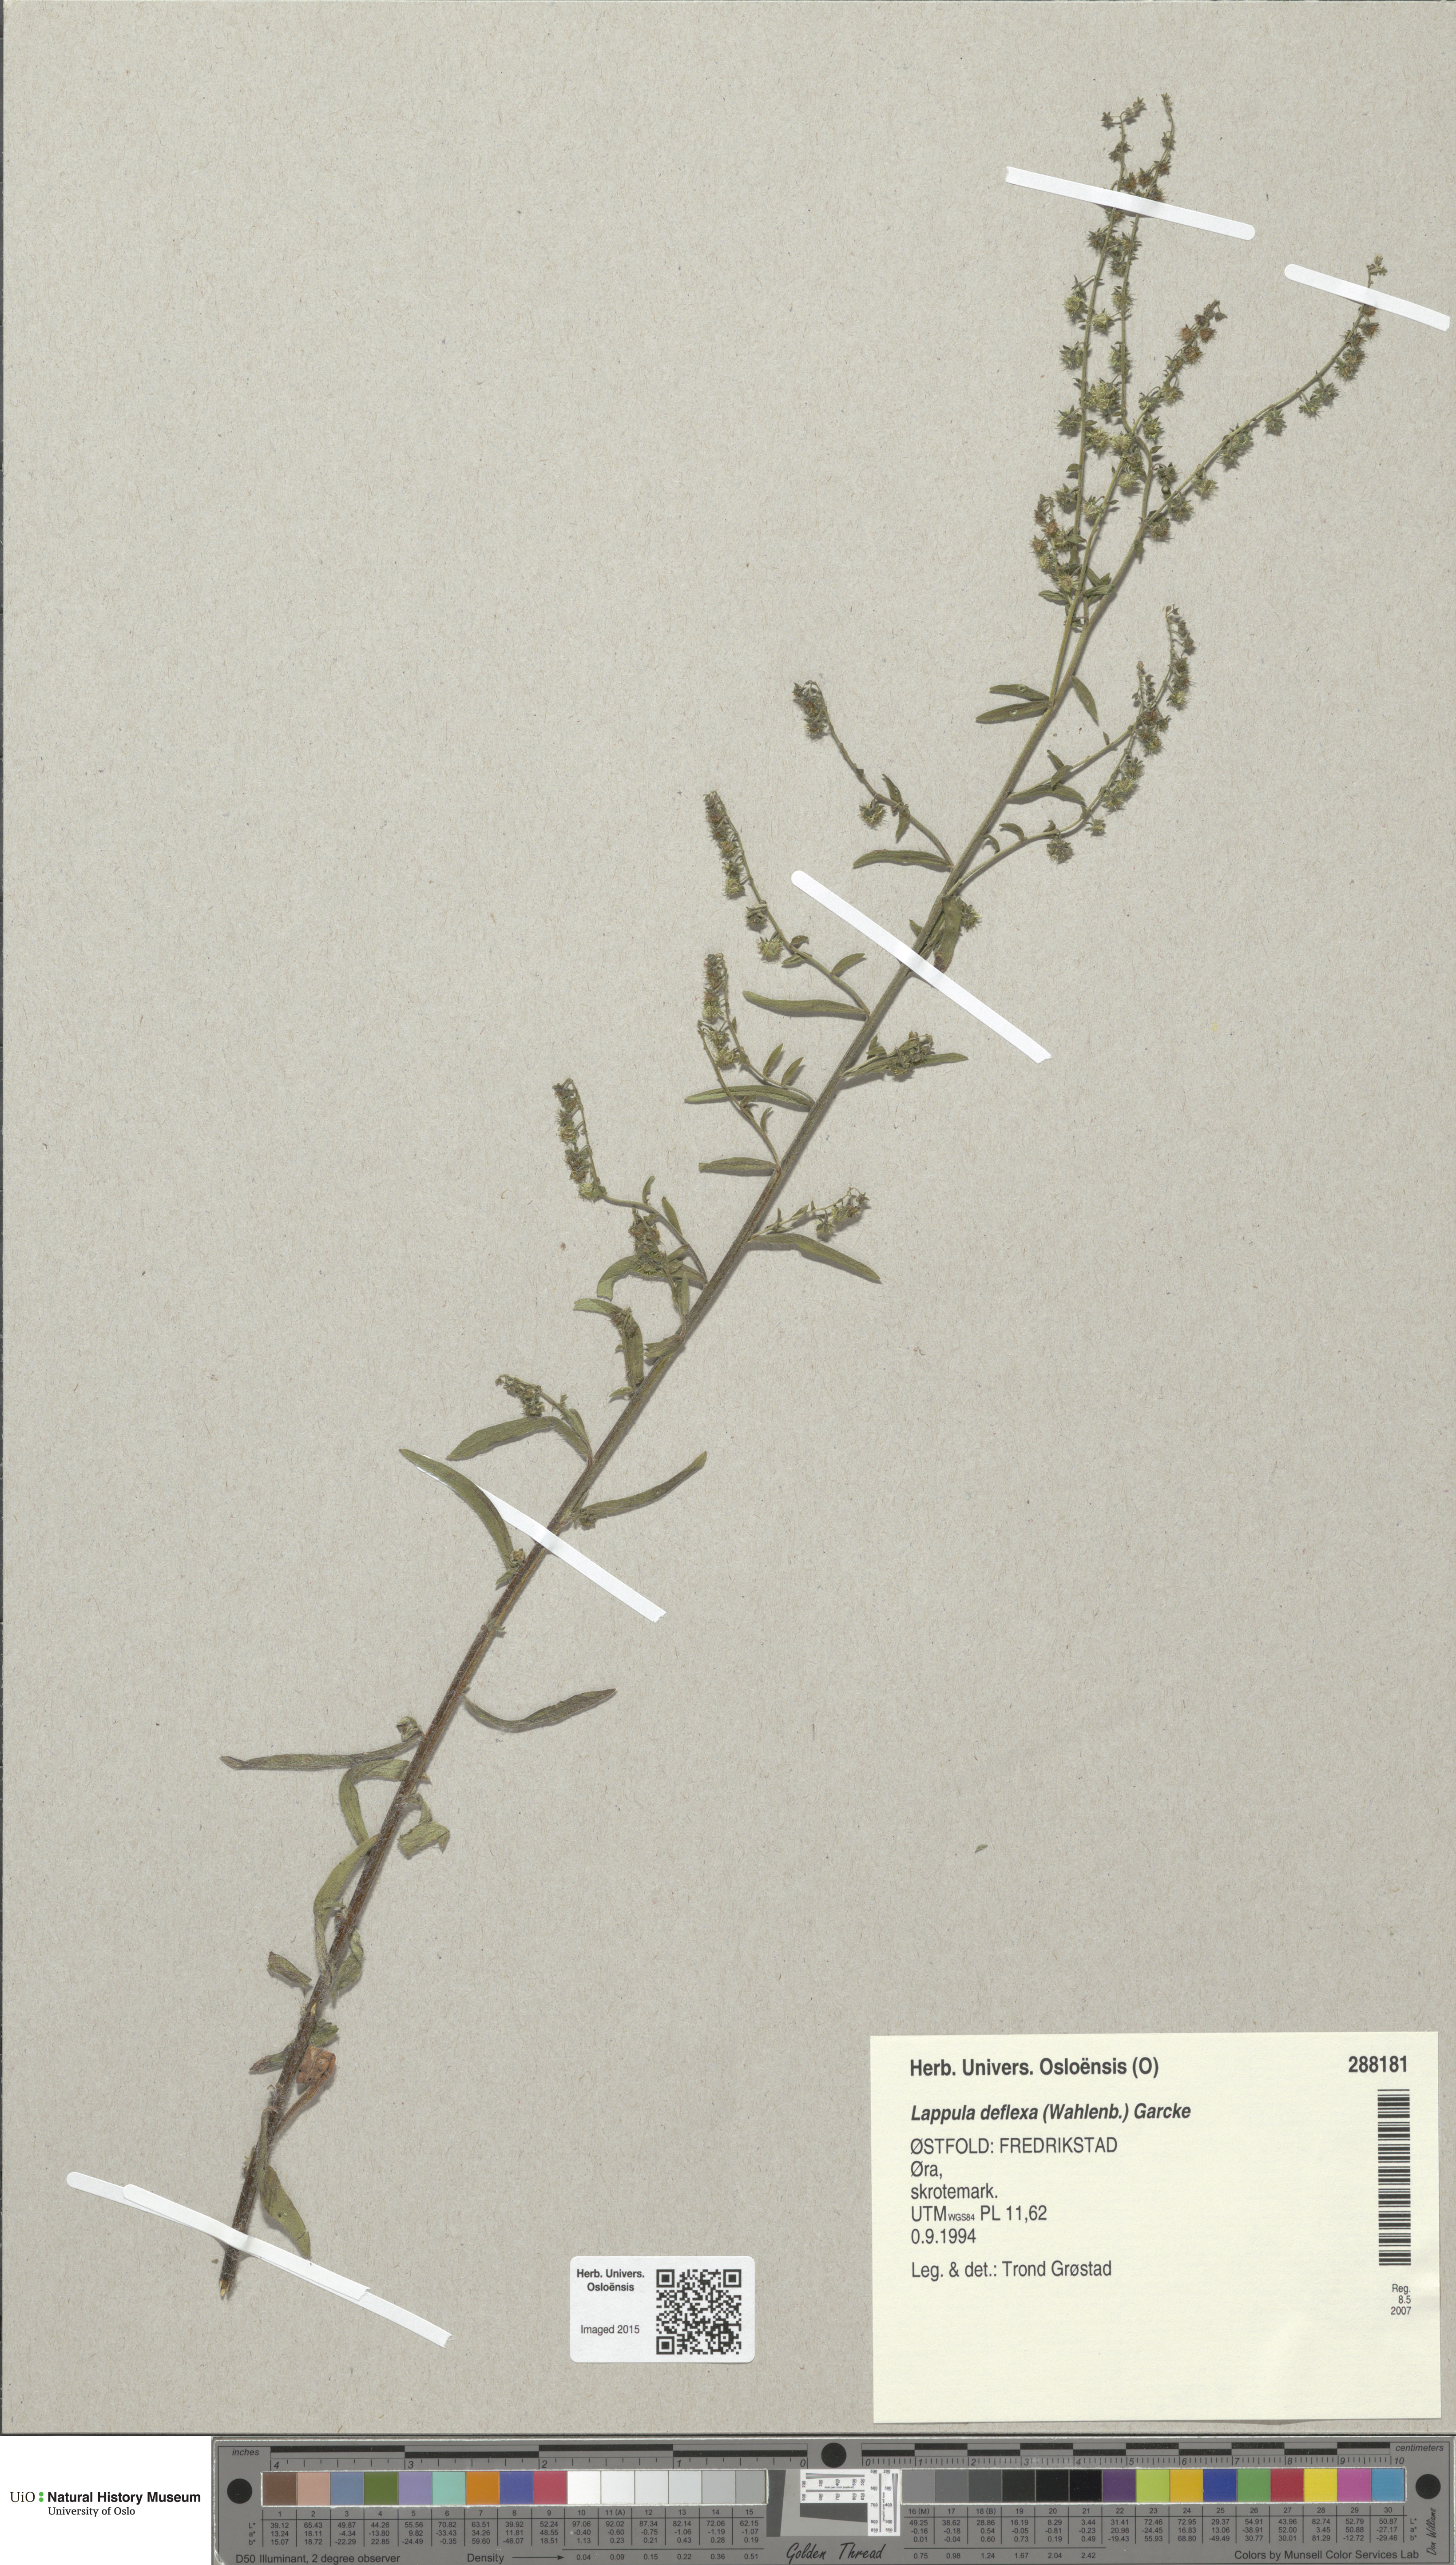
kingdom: Plantae
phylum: Tracheophyta
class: Magnoliopsida
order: Boraginales
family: Boraginaceae
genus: Hackelia
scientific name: Hackelia deflexa
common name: Nodding stickseed
